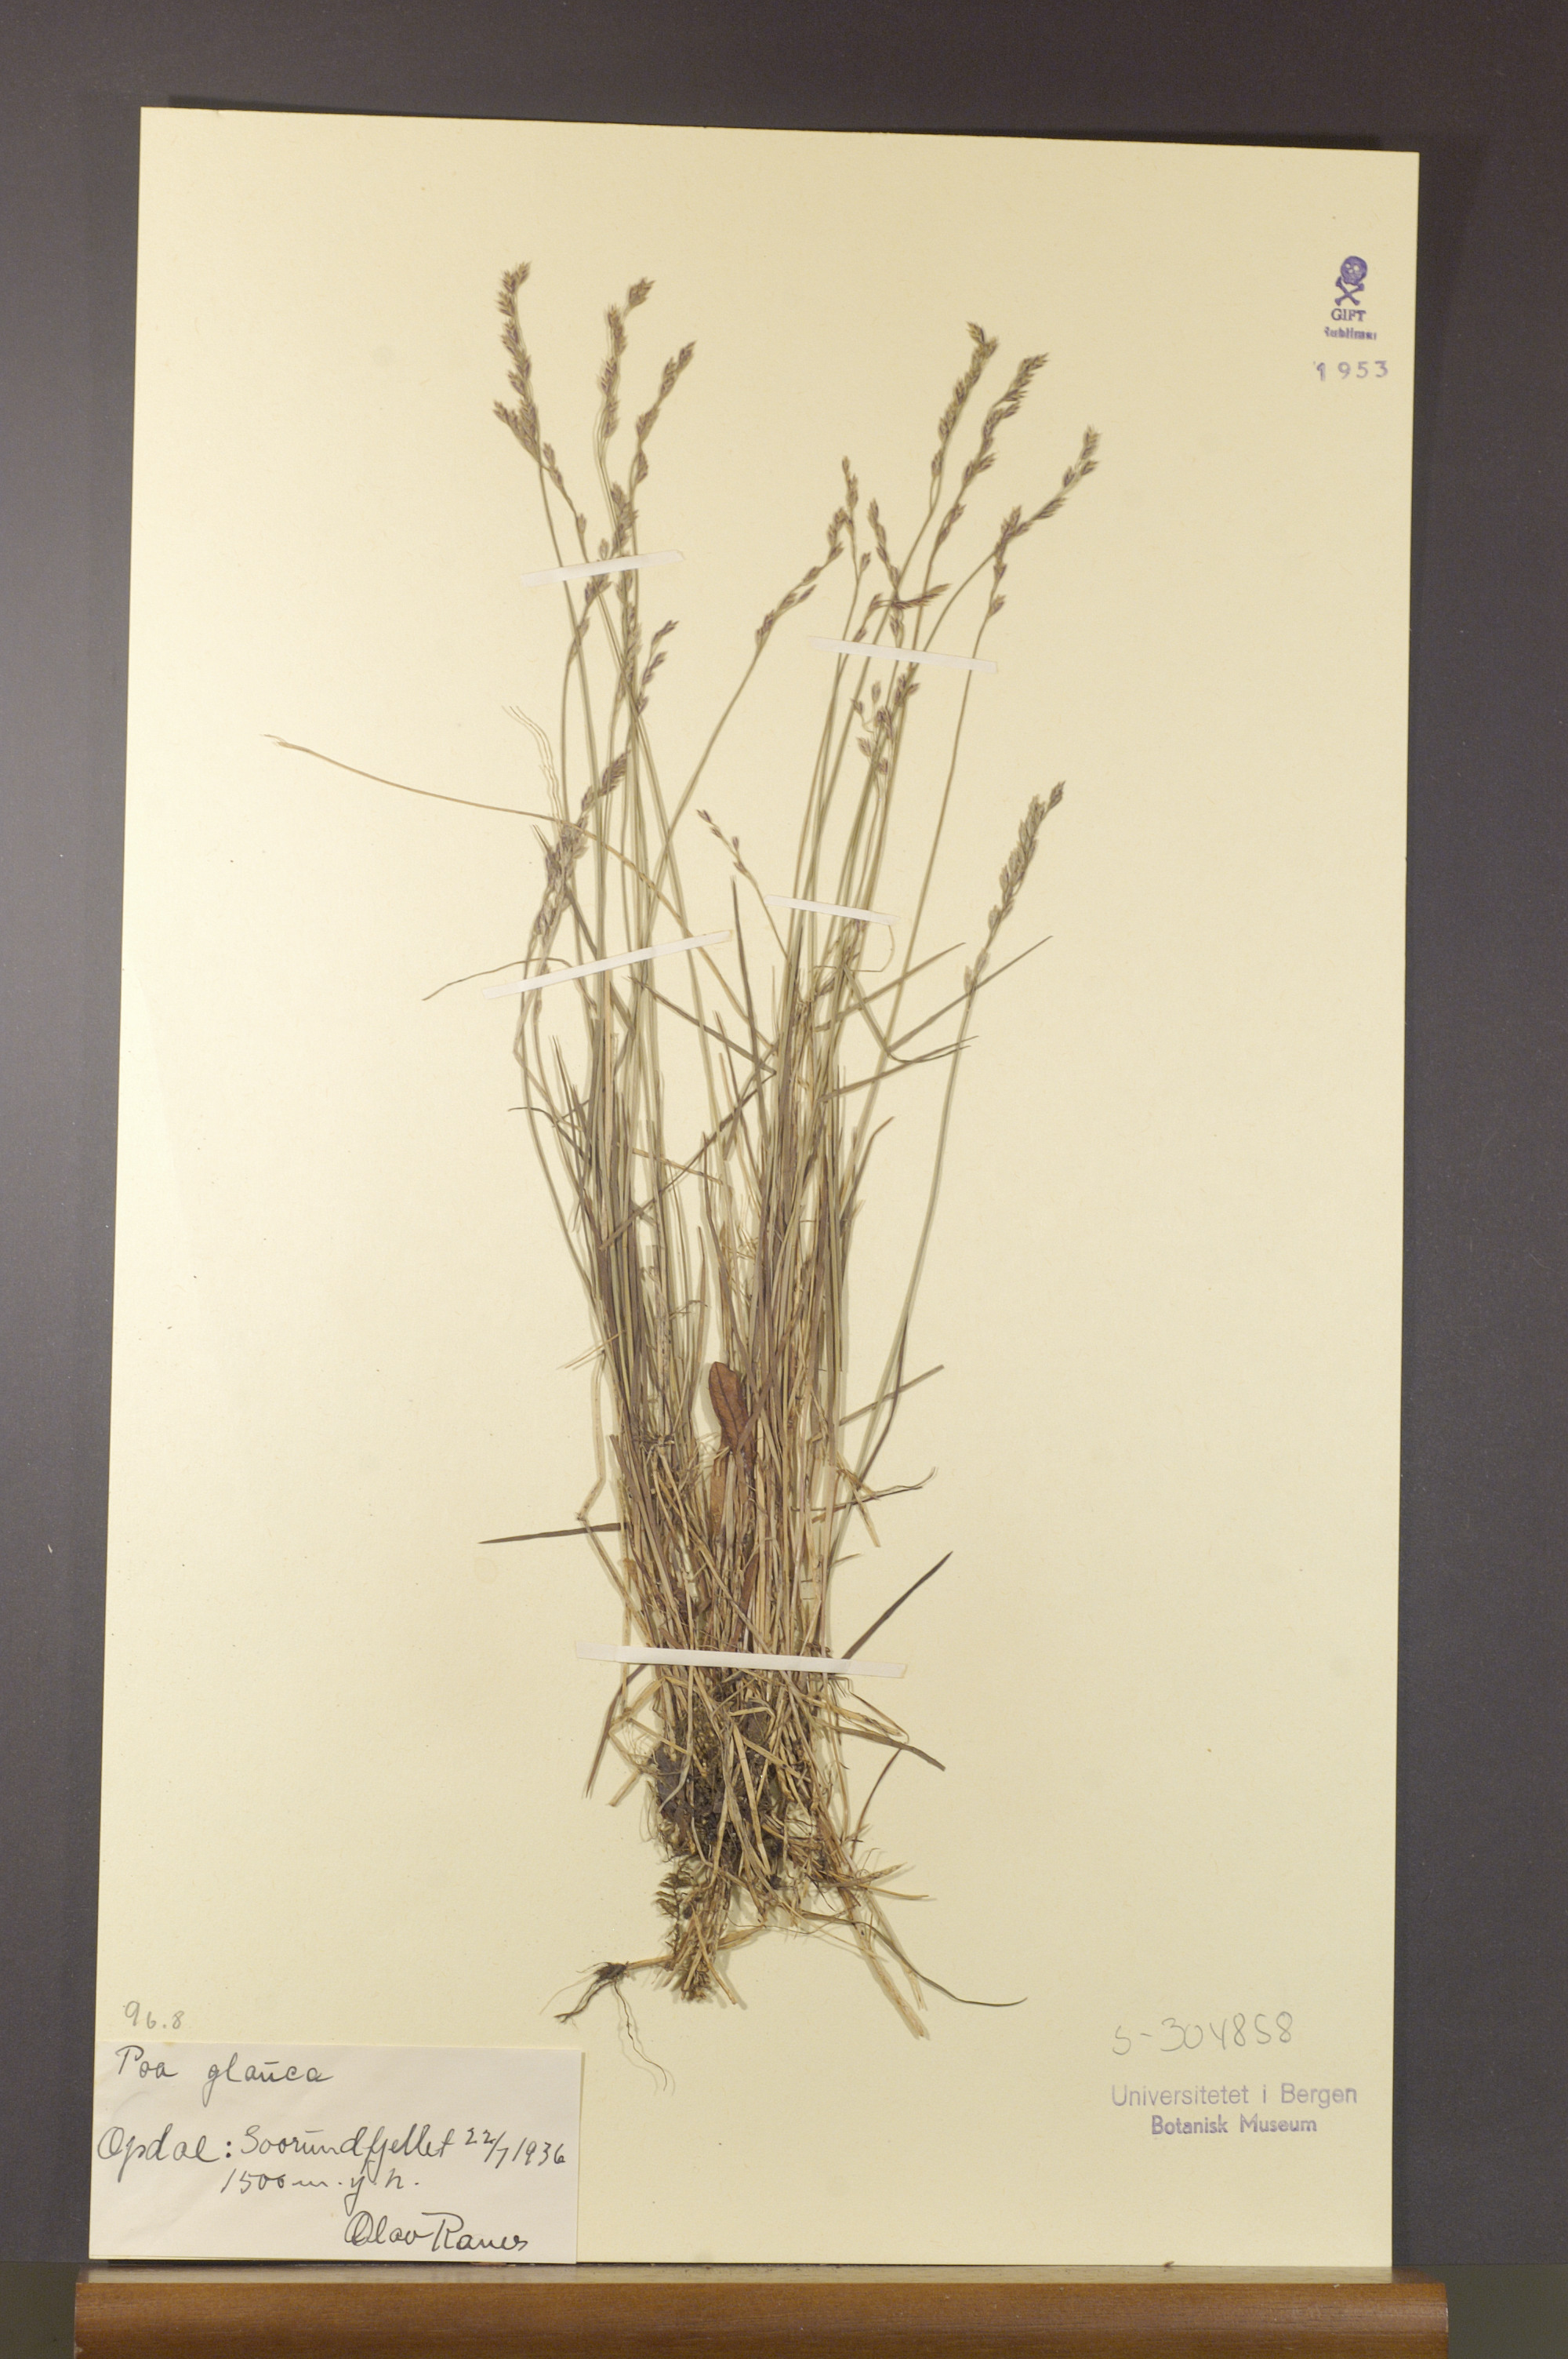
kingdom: Plantae
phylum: Tracheophyta
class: Liliopsida
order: Poales
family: Poaceae
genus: Poa
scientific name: Poa glauca
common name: Glaucous bluegrass
